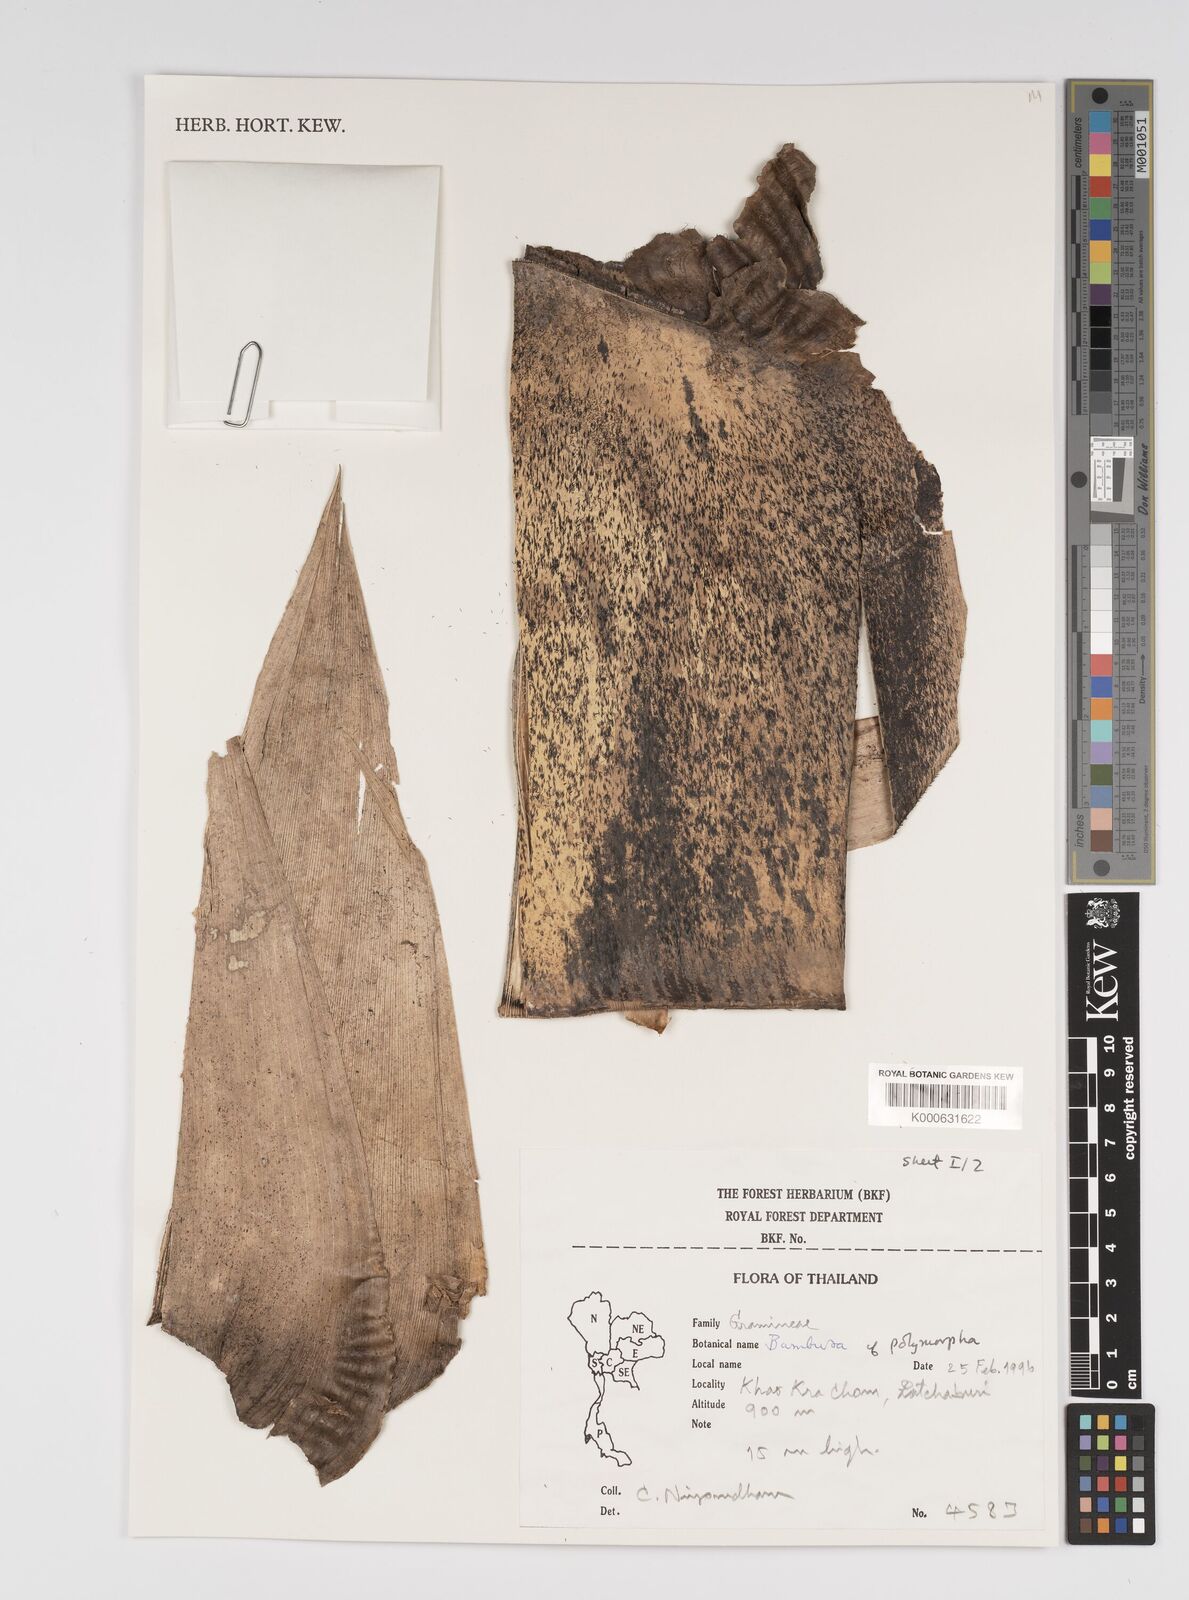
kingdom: Plantae
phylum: Tracheophyta
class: Liliopsida
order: Poales
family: Poaceae
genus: Bambusa
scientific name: Bambusa polymorpha
